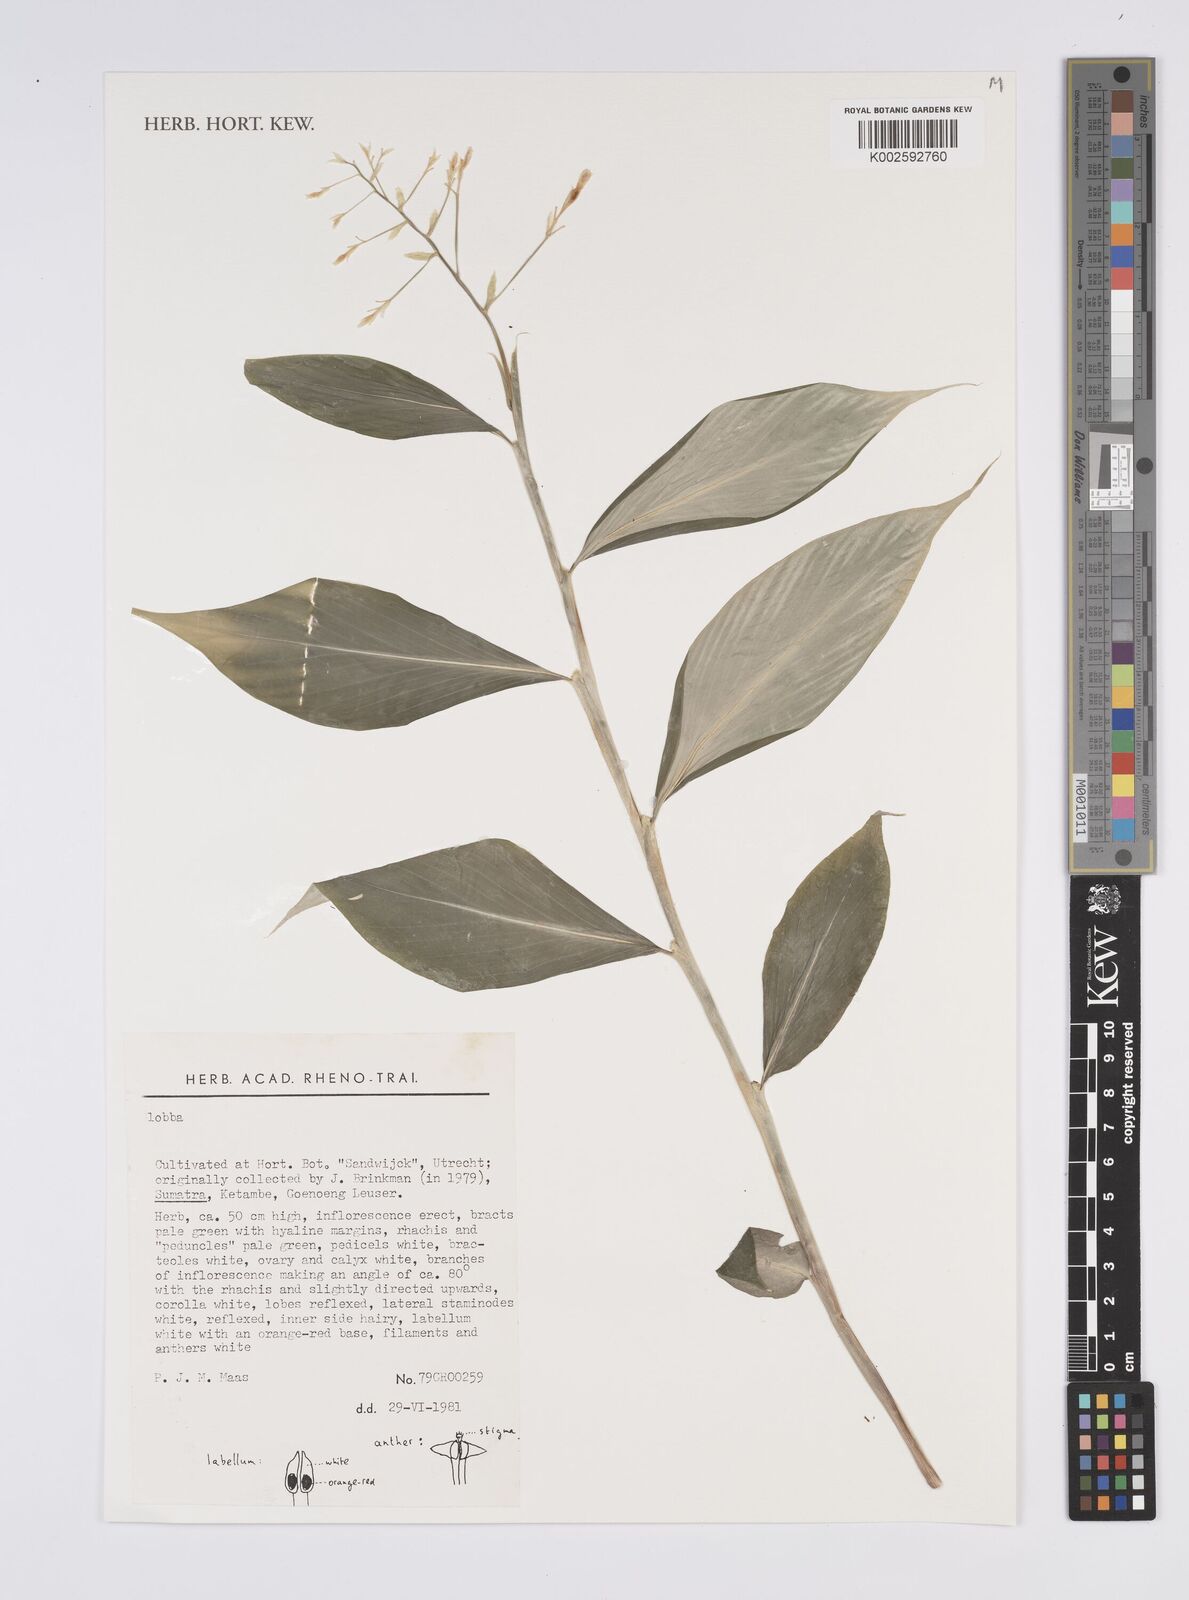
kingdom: Plantae
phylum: Tracheophyta
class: Liliopsida
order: Zingiberales
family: Zingiberaceae
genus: Globba
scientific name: Globba
